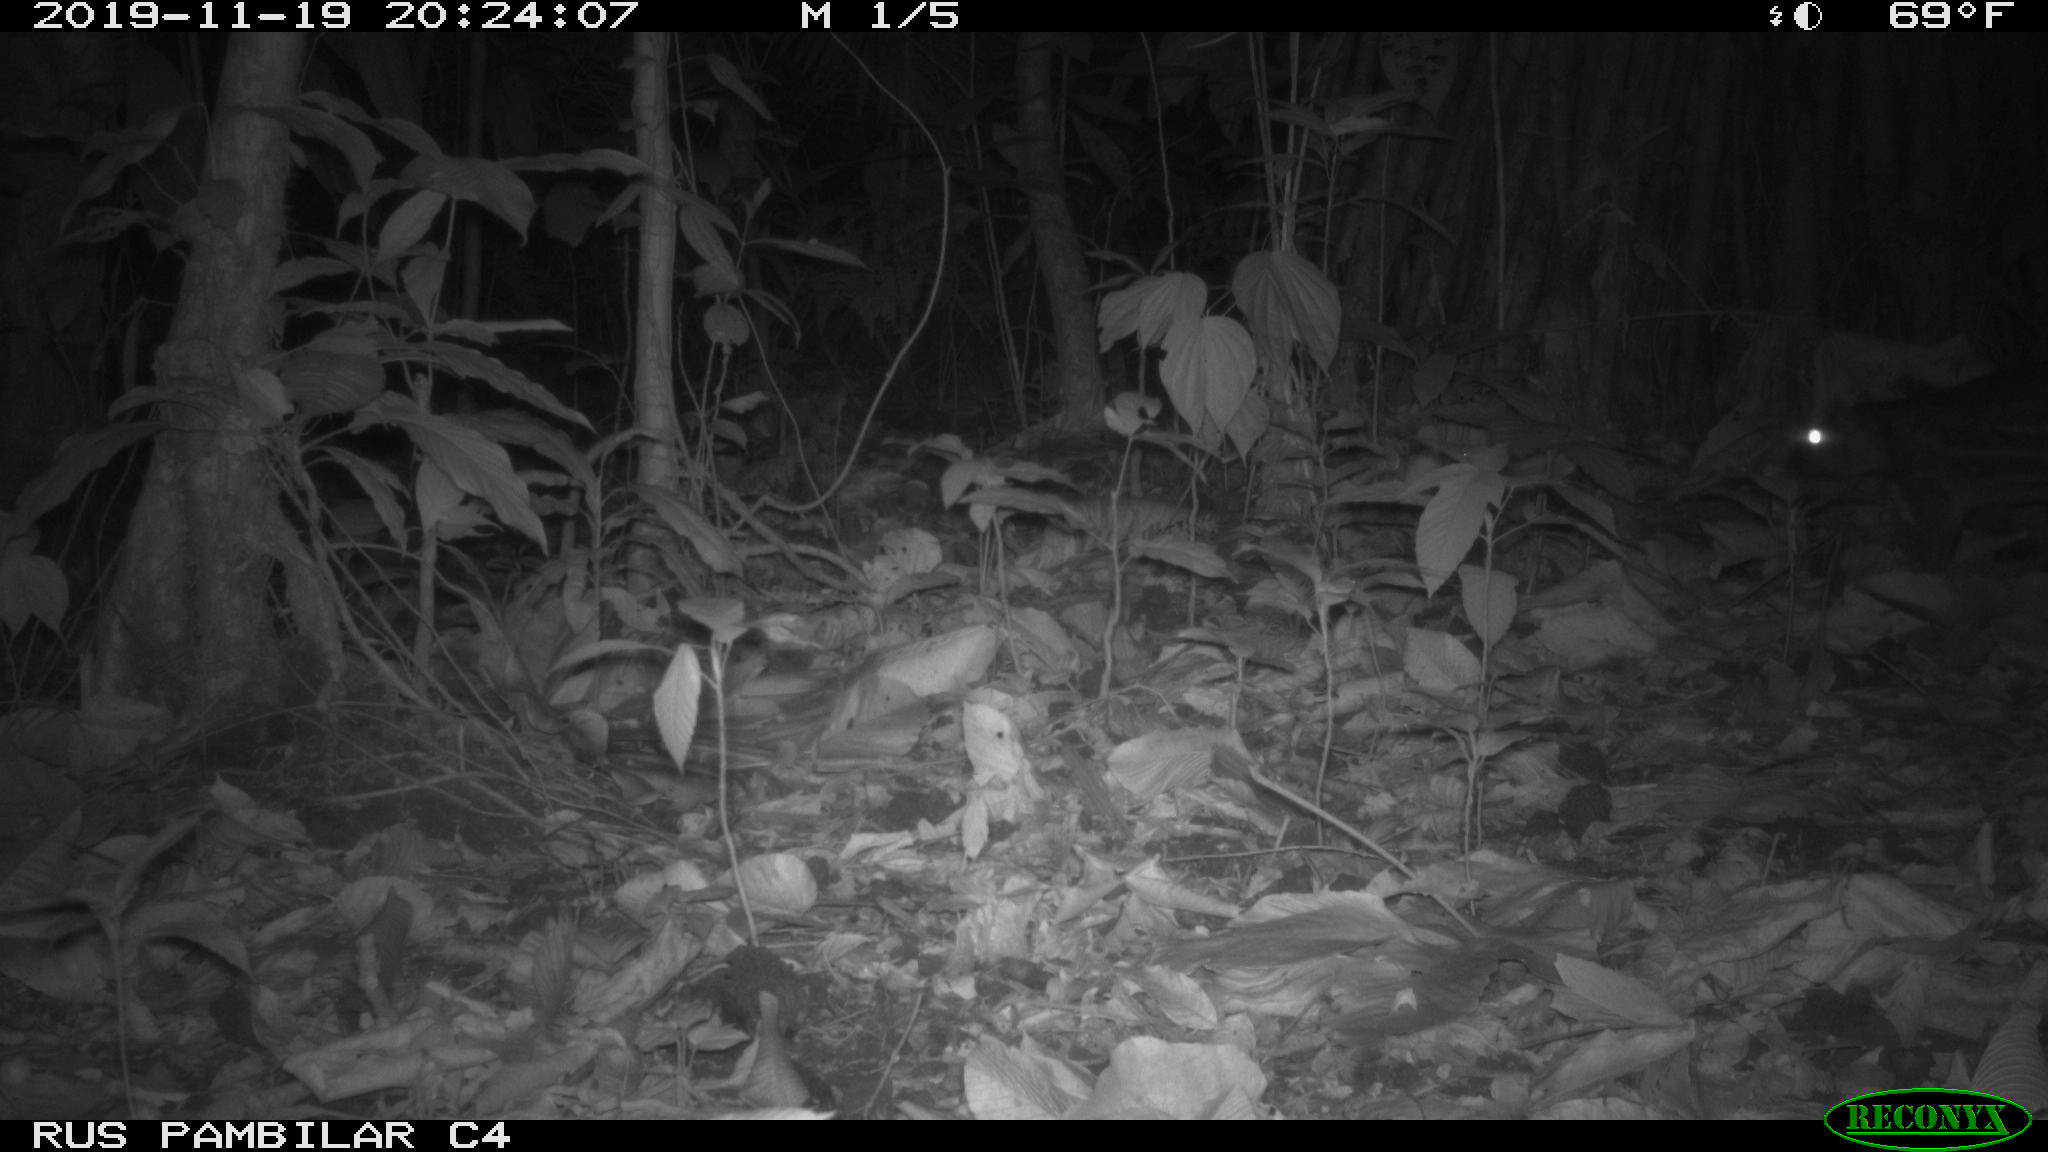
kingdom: Animalia
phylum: Chordata
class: Mammalia
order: Rodentia
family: Cuniculidae
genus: Cuniculus
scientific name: Cuniculus paca
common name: Lowland paca
